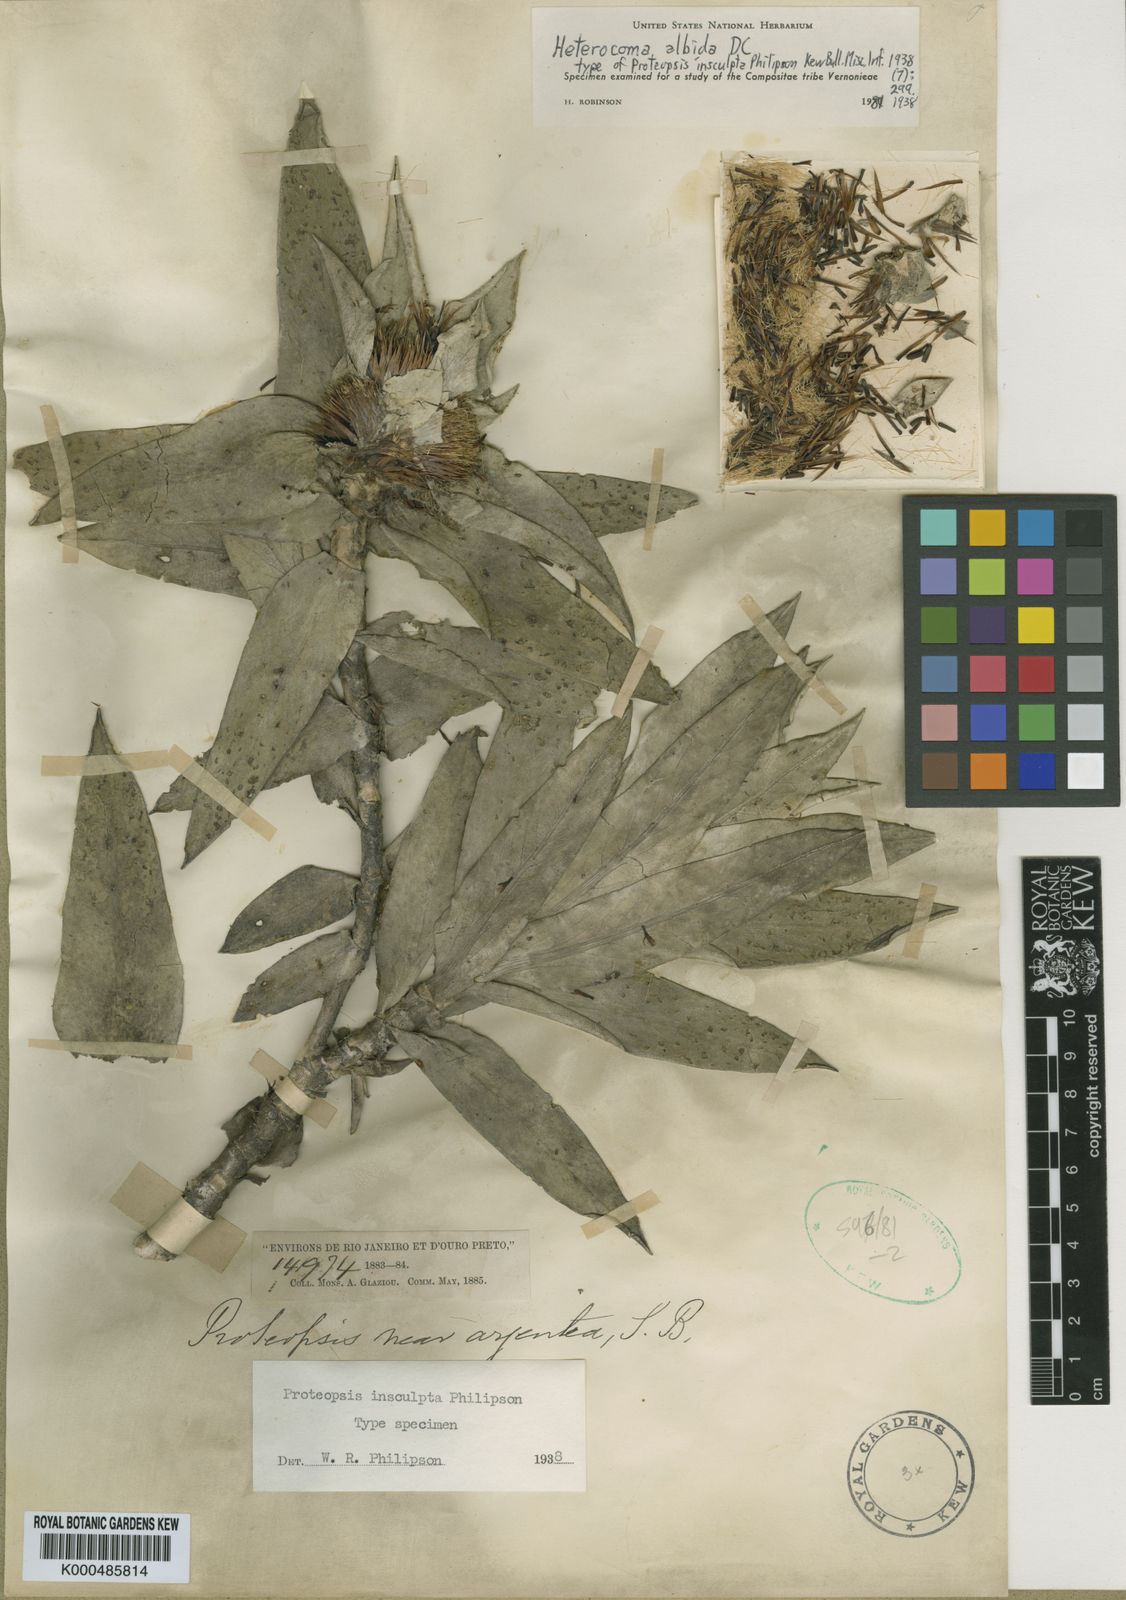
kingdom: Plantae
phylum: Tracheophyta
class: Magnoliopsida
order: Asterales
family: Asteraceae
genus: Heterocoma
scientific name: Heterocoma albida
